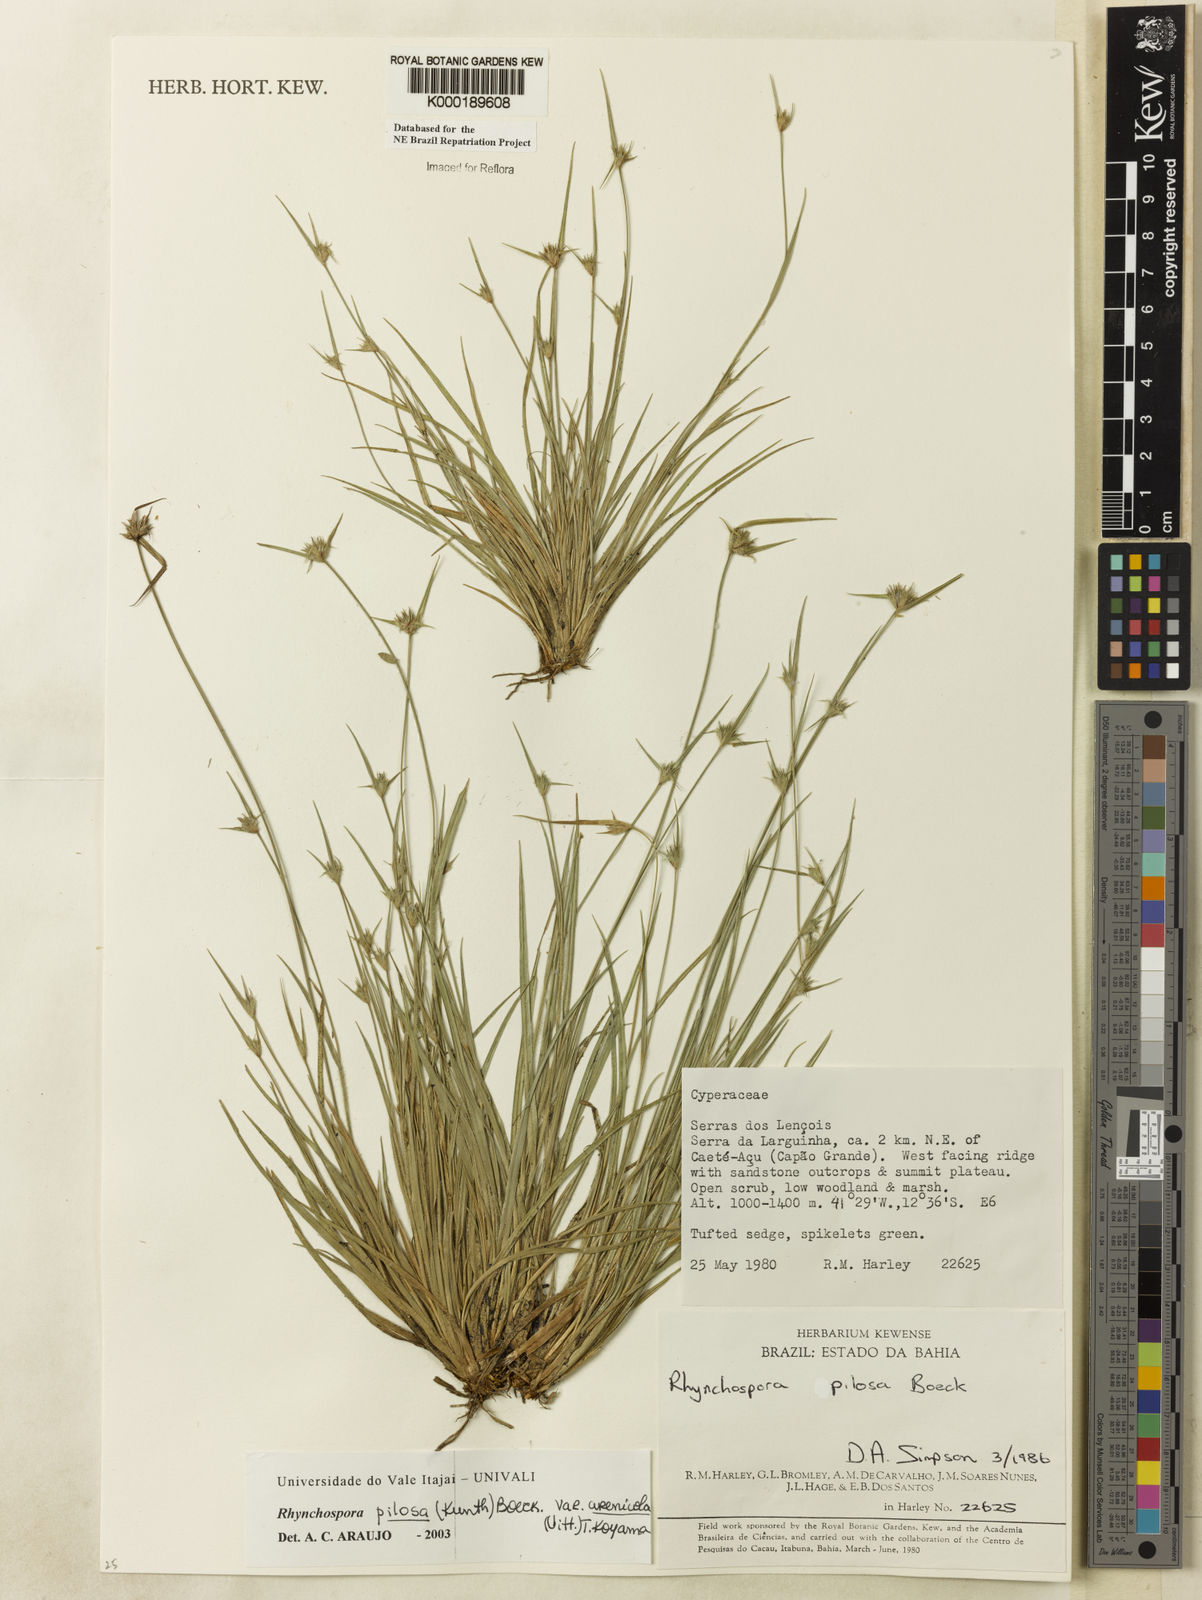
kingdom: Plantae
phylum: Tracheophyta
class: Liliopsida
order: Poales
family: Cyperaceae
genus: Rhynchospora
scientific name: Rhynchospora arenicola
